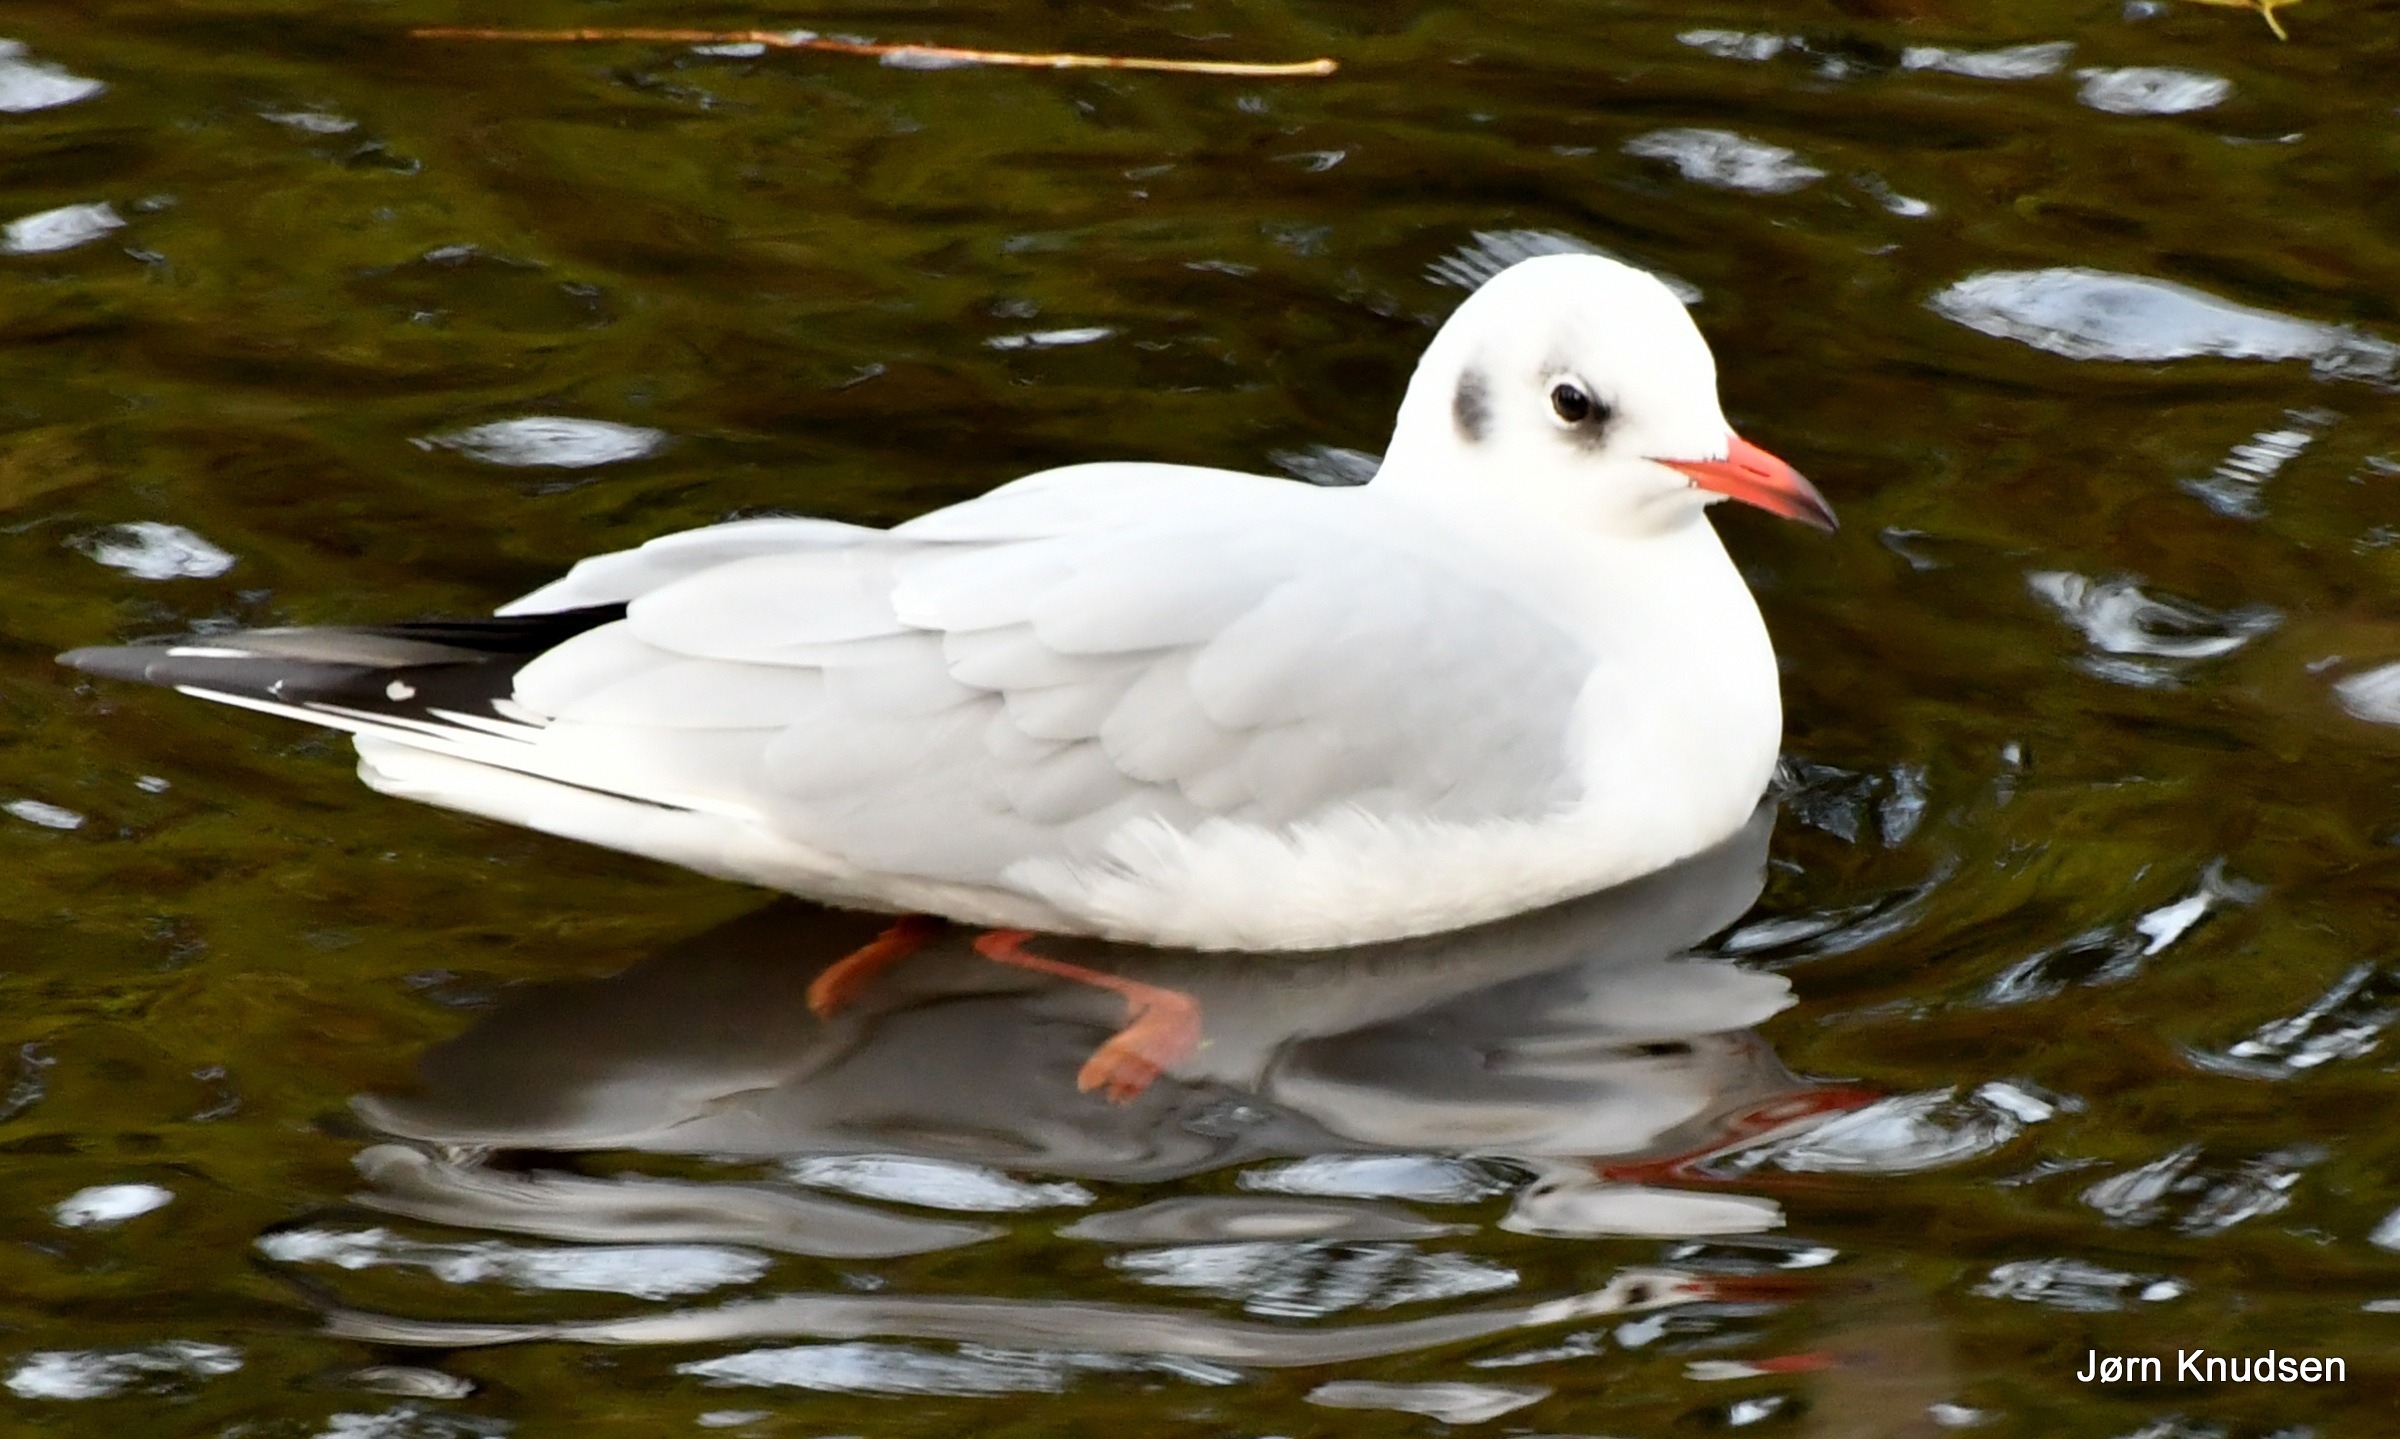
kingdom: Animalia
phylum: Chordata
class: Aves
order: Charadriiformes
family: Laridae
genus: Chroicocephalus
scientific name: Chroicocephalus ridibundus
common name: Hættemåge
